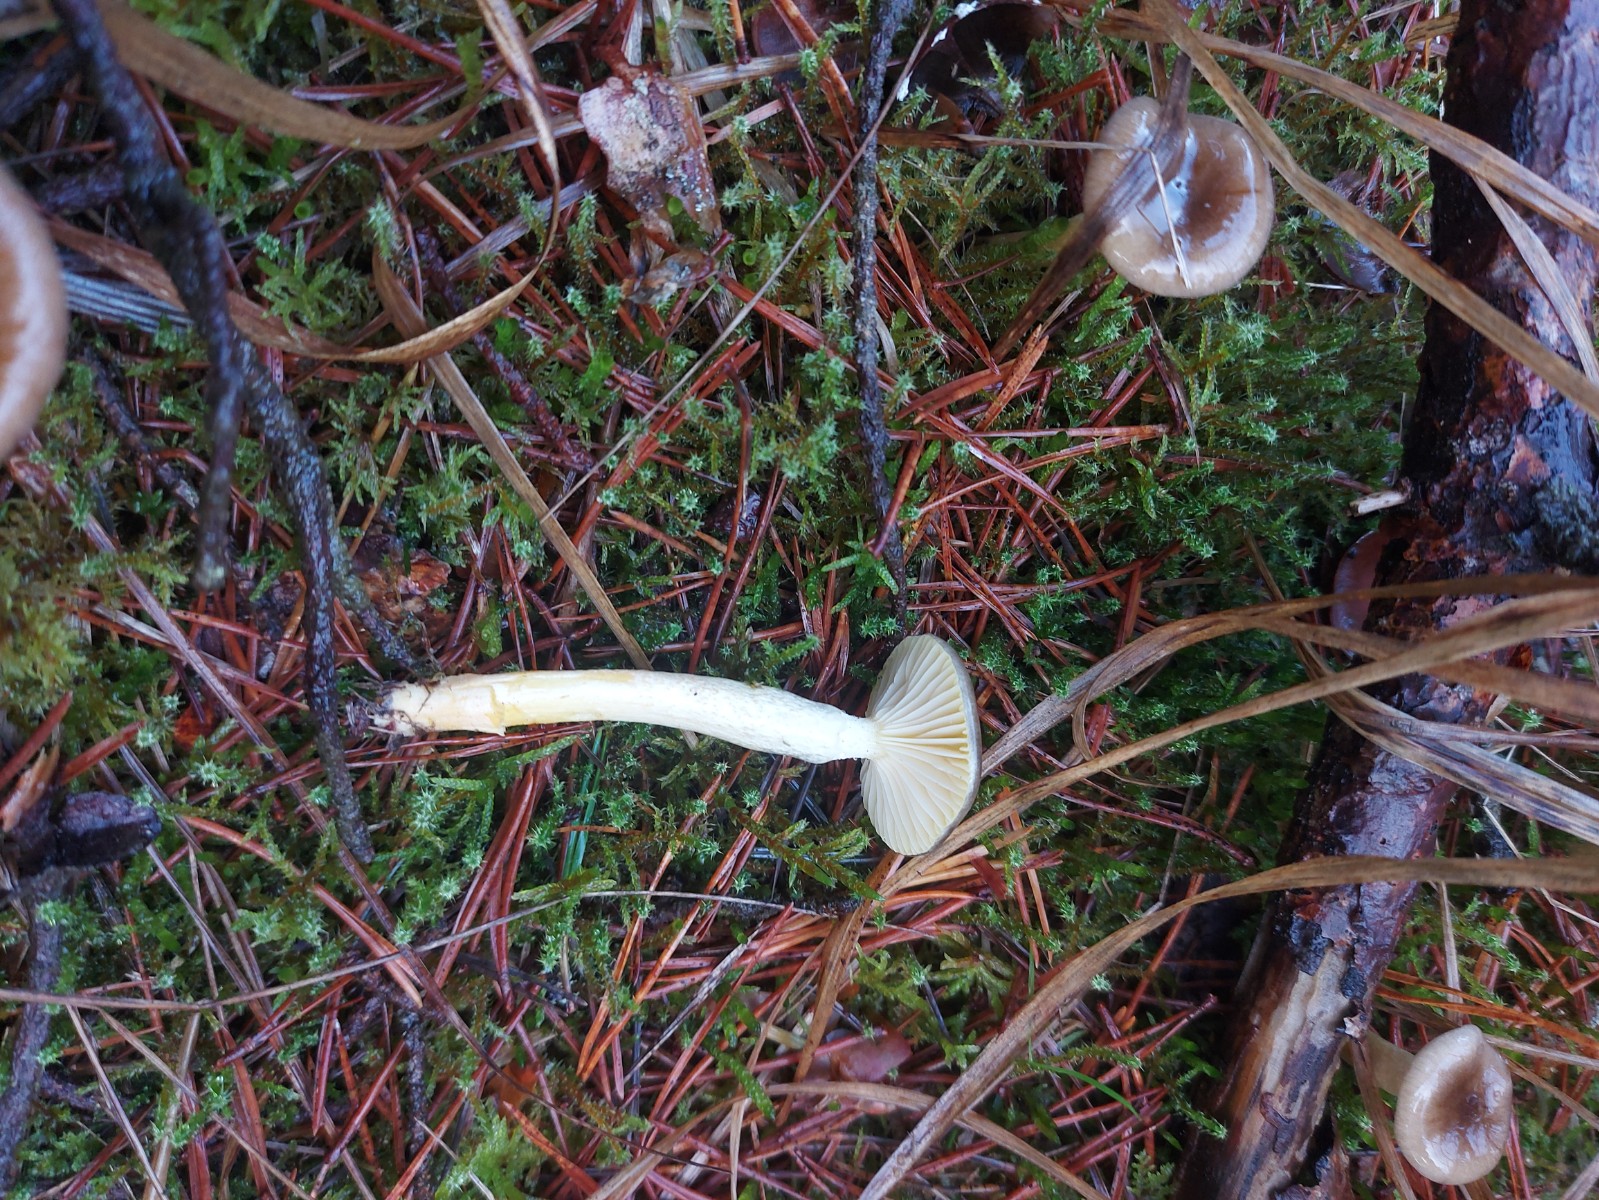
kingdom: Fungi
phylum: Basidiomycota
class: Agaricomycetes
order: Agaricales
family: Hygrophoraceae
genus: Hygrophorus
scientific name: Hygrophorus hypothejus
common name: frost-sneglehat
